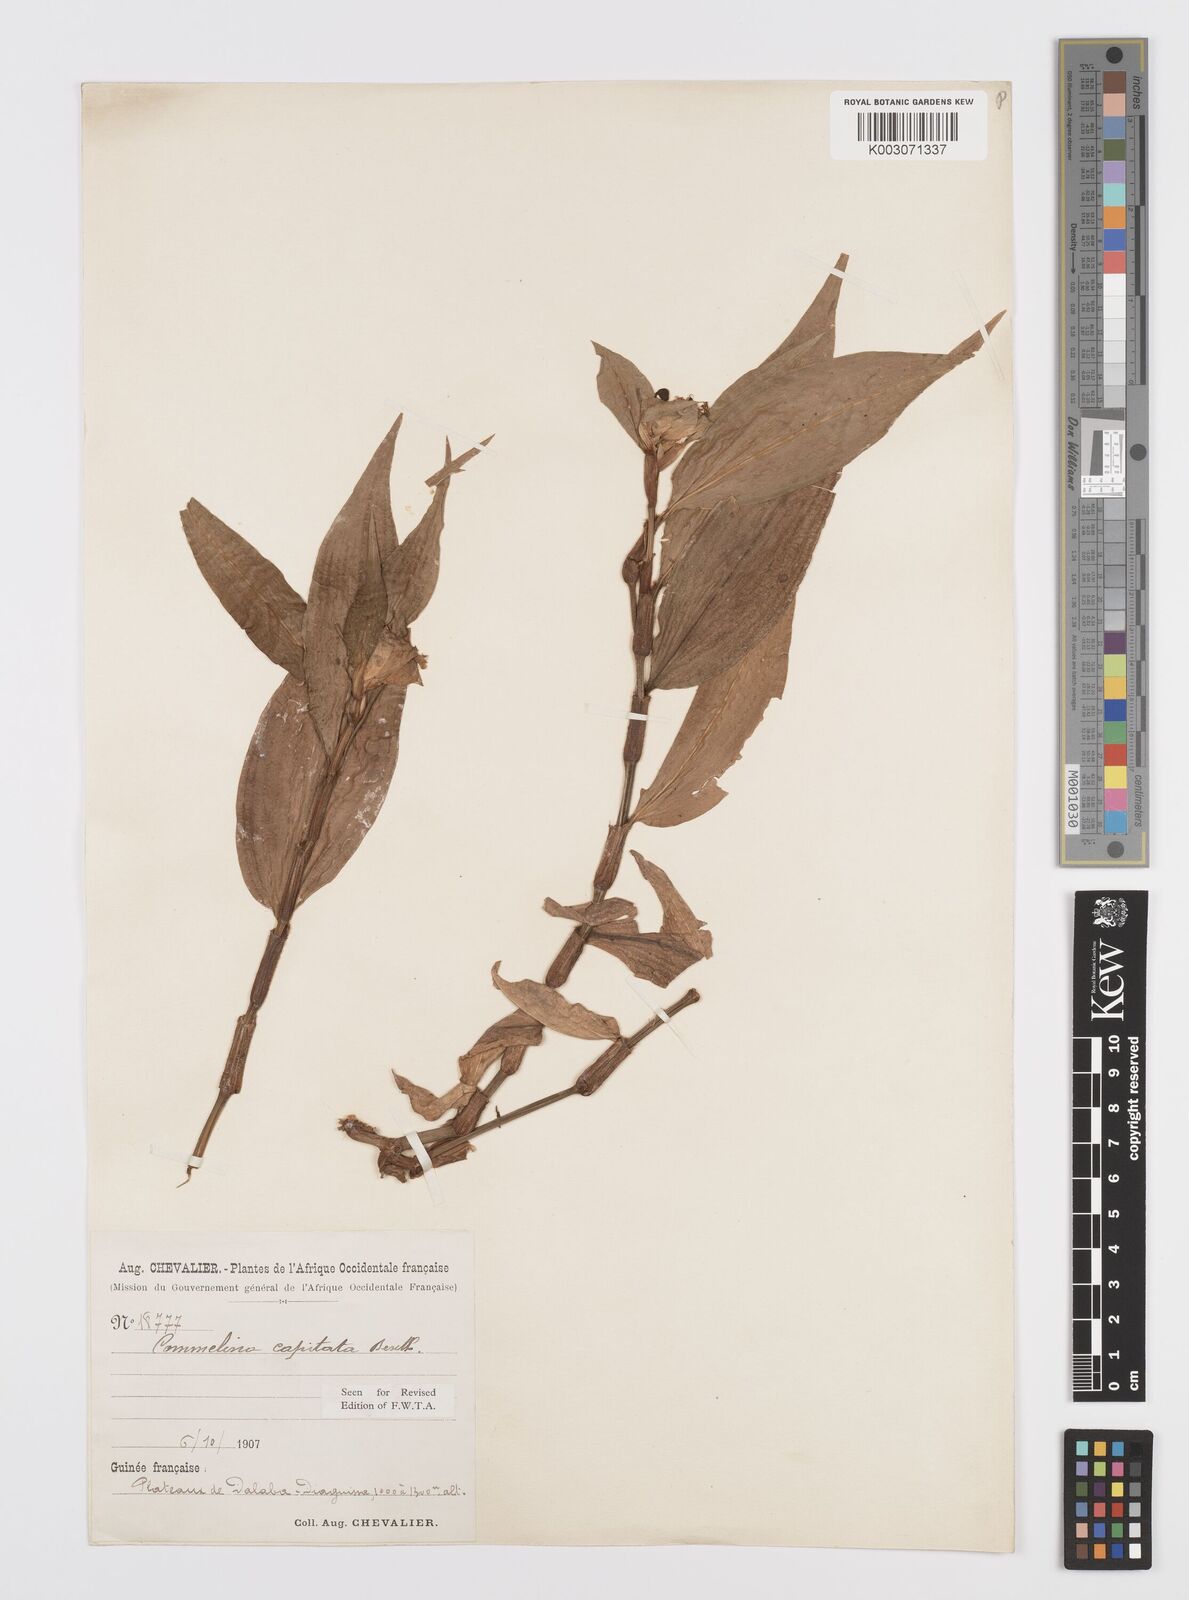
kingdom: Plantae
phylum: Tracheophyta
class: Liliopsida
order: Commelinales
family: Commelinaceae
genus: Commelina
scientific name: Commelina capitata
